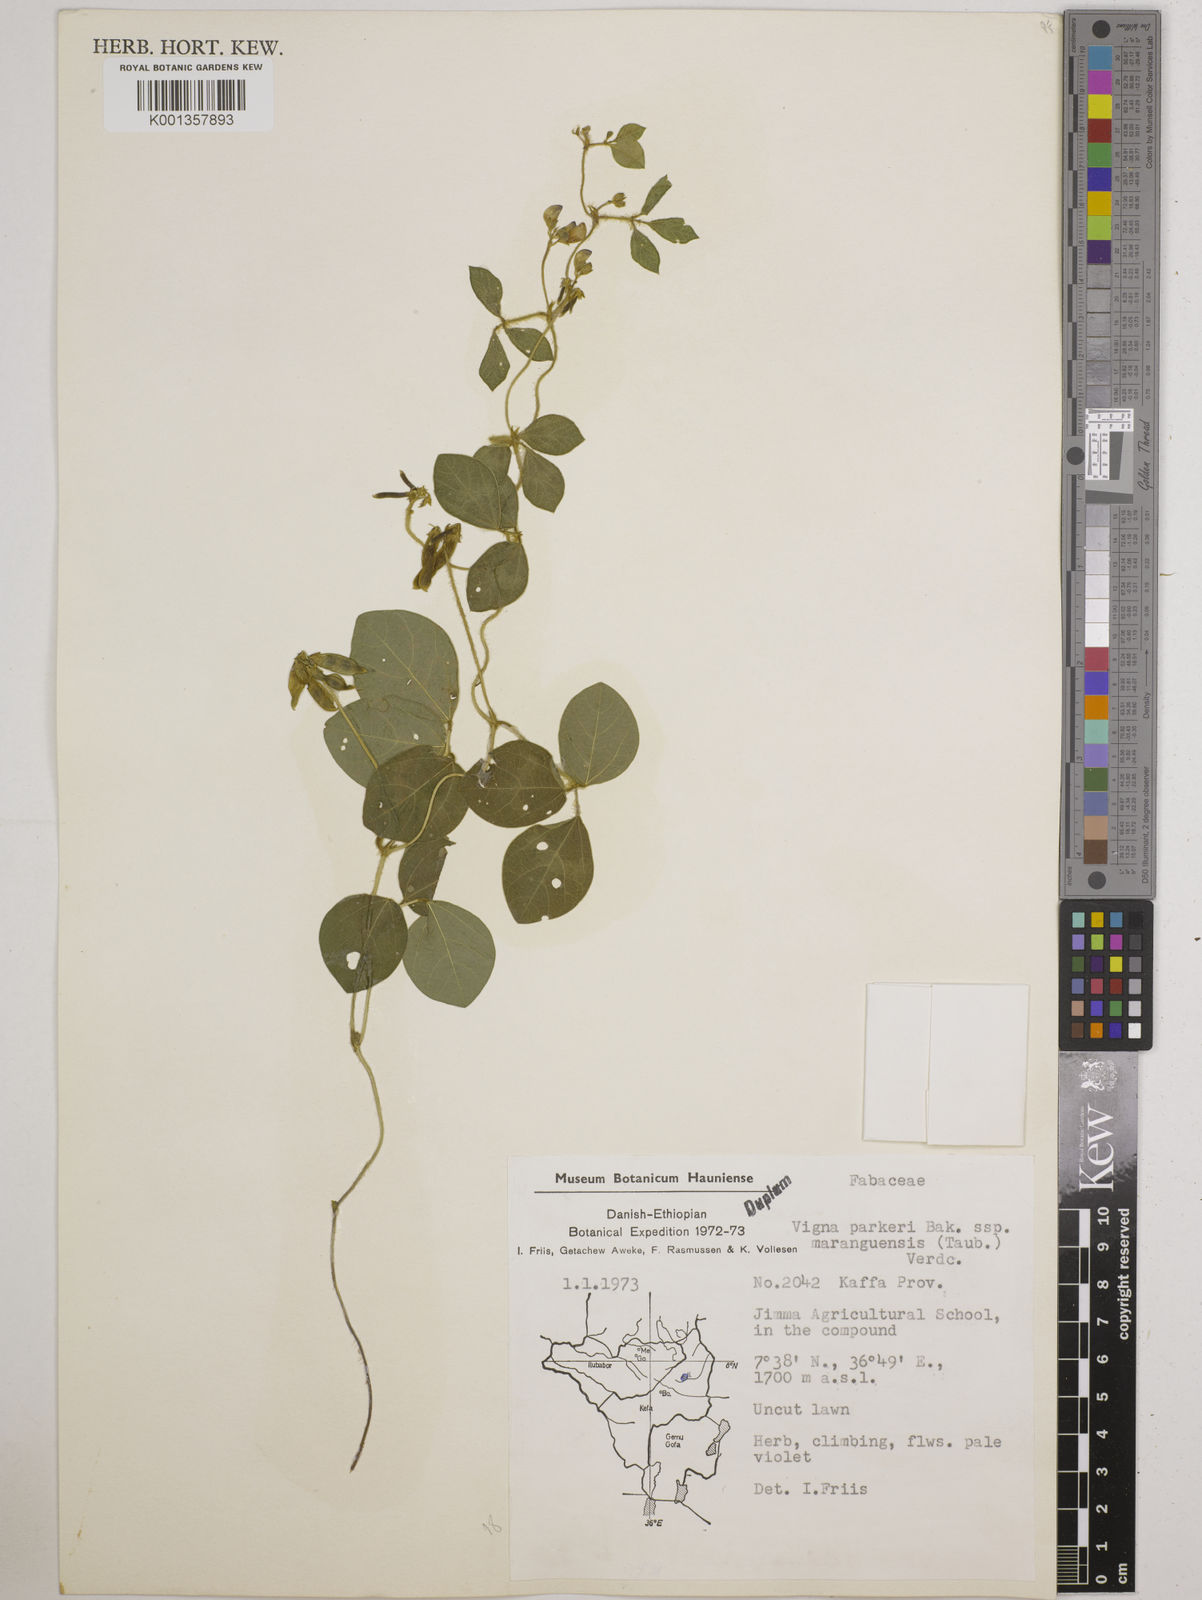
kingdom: Plantae
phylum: Tracheophyta
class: Magnoliopsida
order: Fabales
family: Fabaceae
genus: Vigna
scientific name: Vigna
